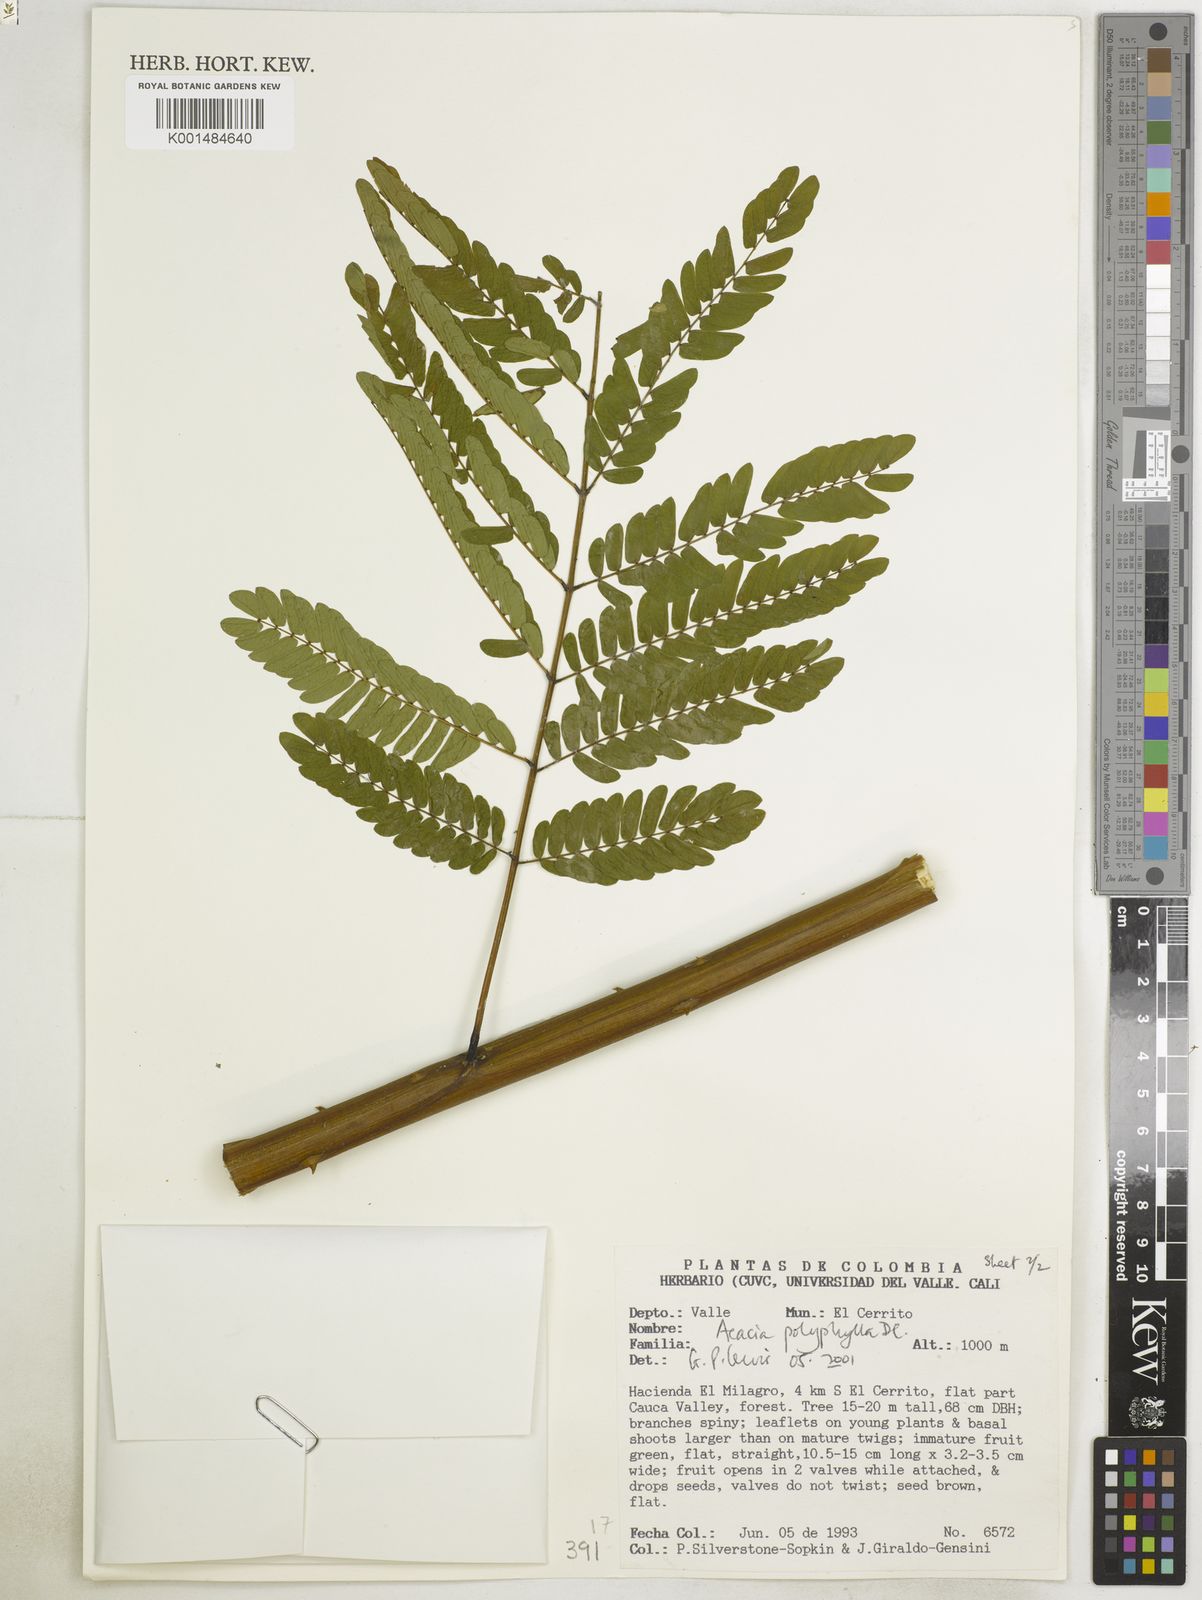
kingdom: Plantae
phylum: Tracheophyta
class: Magnoliopsida
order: Fabales
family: Fabaceae
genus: Senegalia
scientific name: Senegalia polyphylla
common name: White-tamarind
